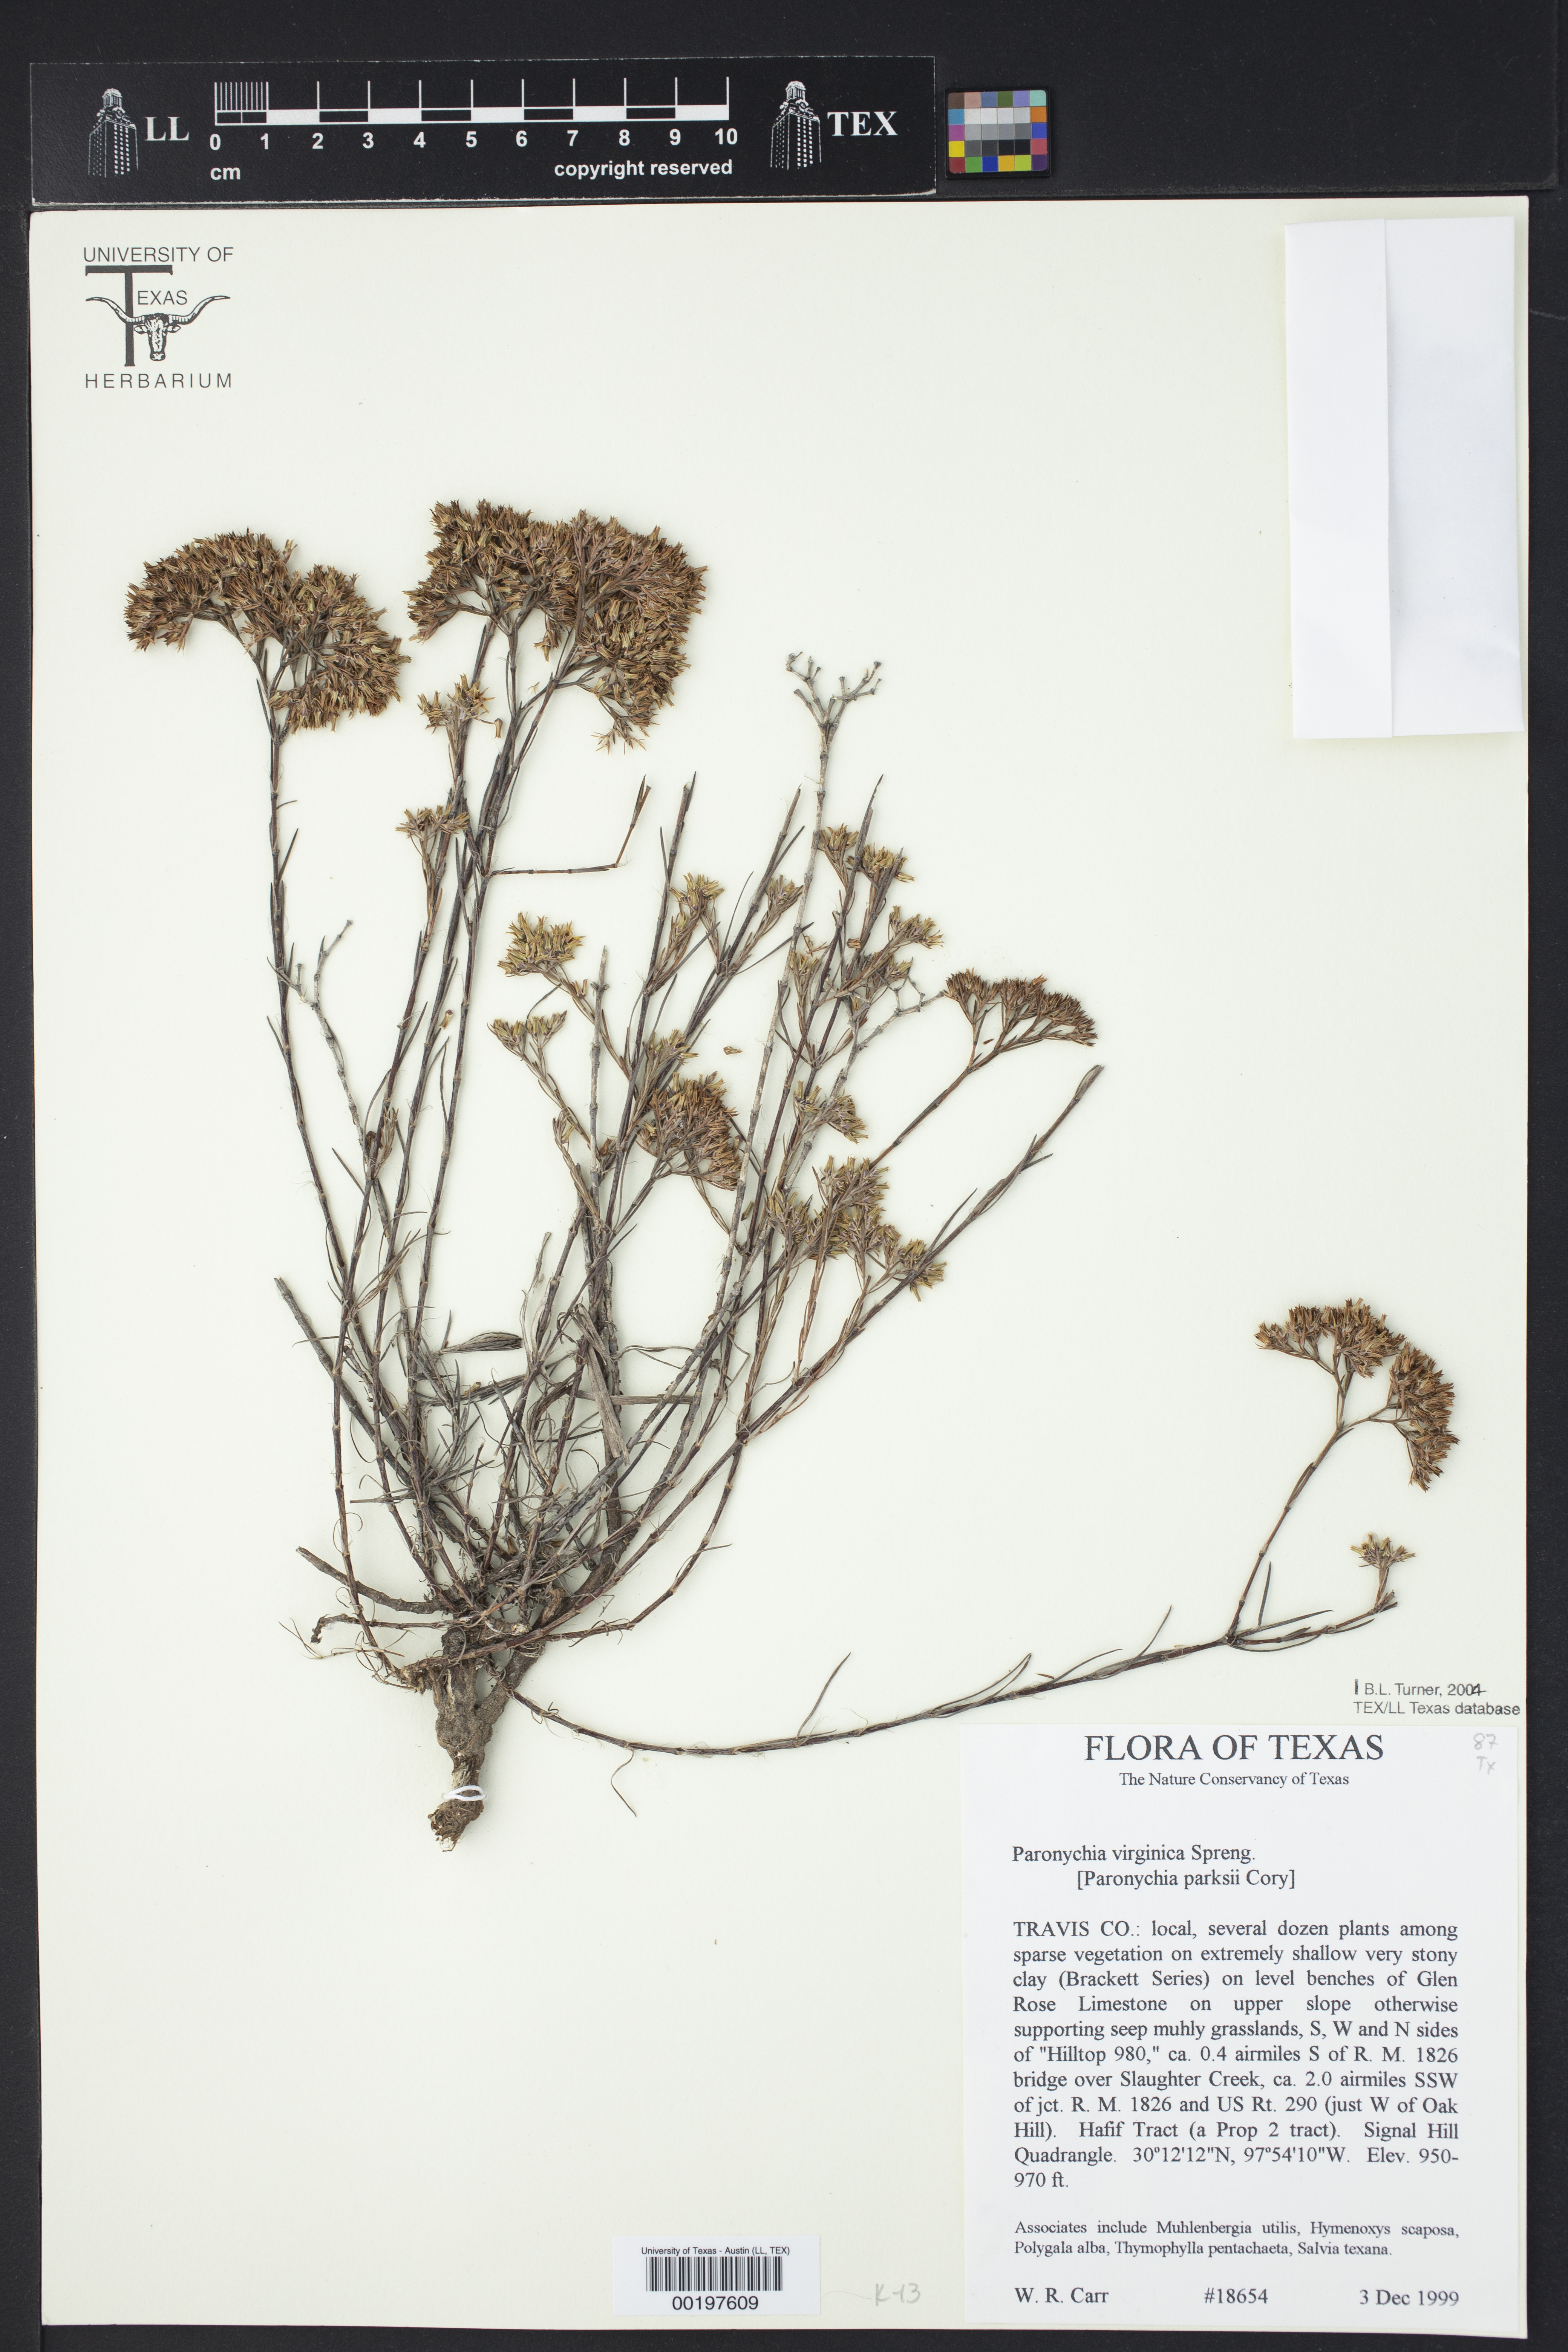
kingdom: Plantae
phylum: Tracheophyta
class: Magnoliopsida
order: Caryophyllales
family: Caryophyllaceae
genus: Paronychia
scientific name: Paronychia virginica
